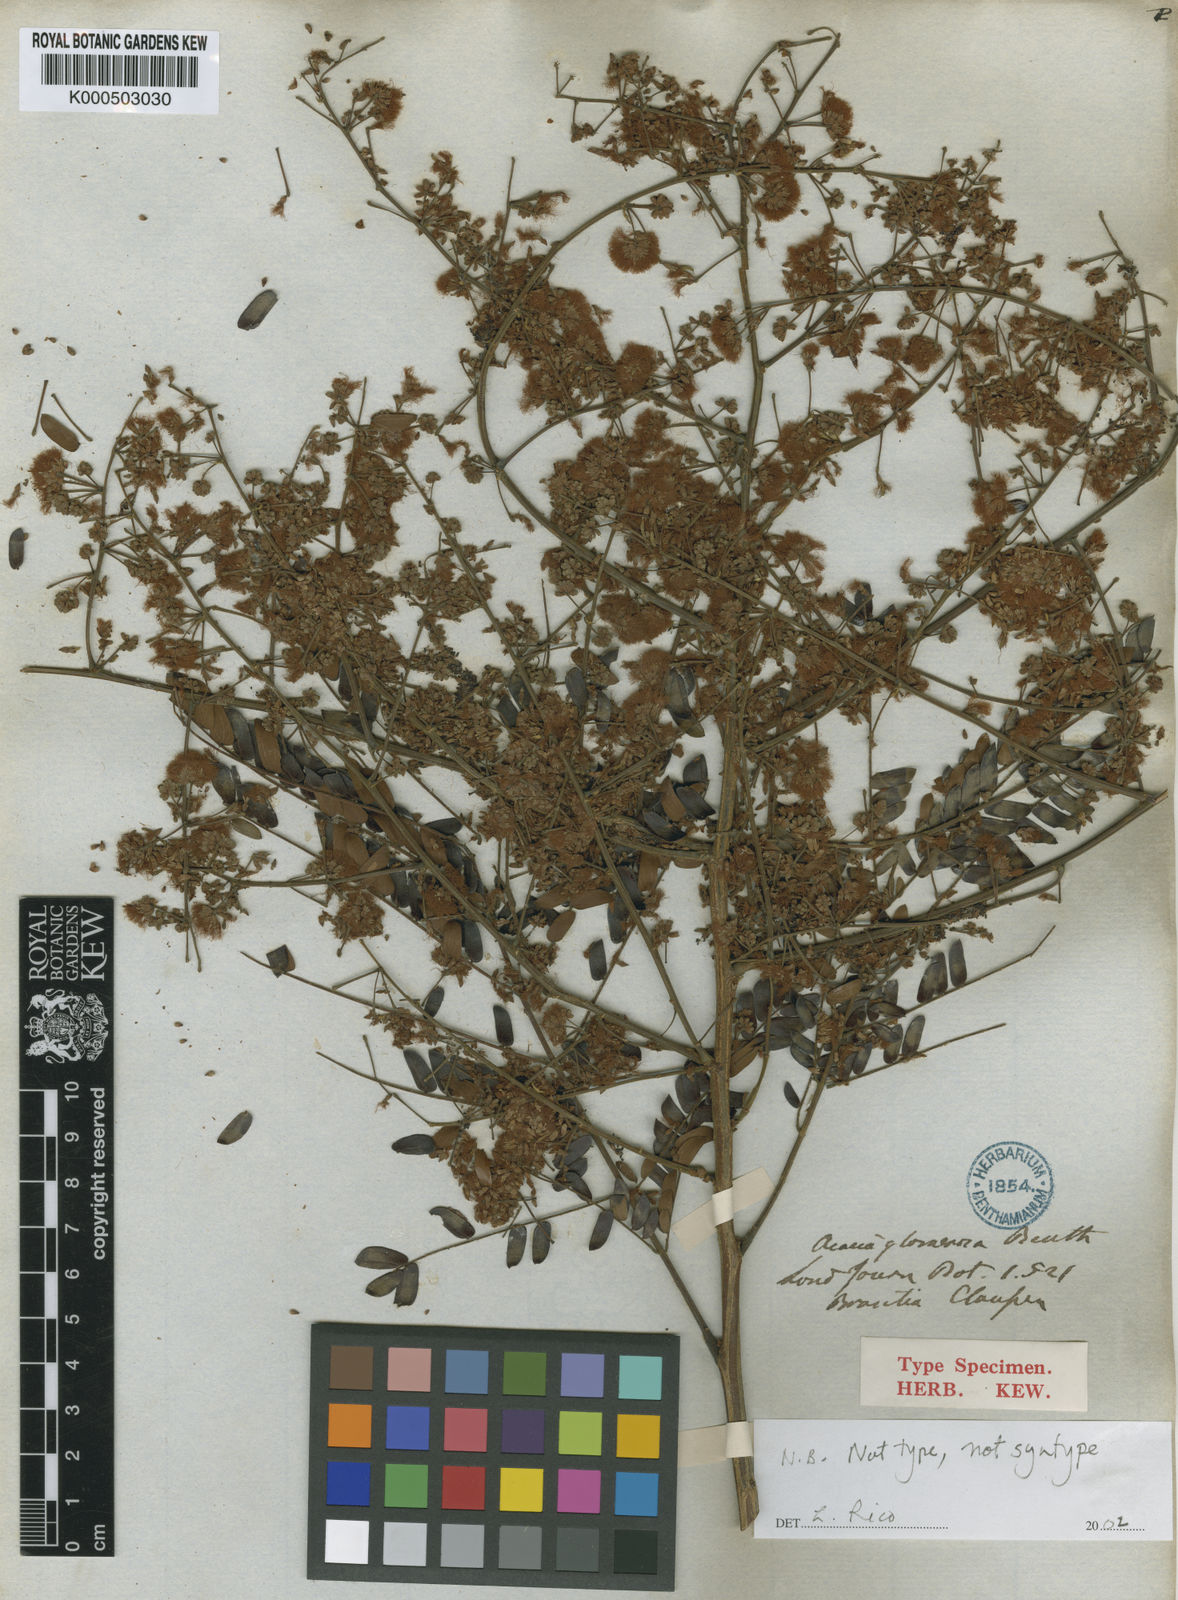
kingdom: Plantae
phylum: Tracheophyta
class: Magnoliopsida
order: Fabales
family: Fabaceae
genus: Senegalia
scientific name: Senegalia polyphylla
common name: White-tamarind
